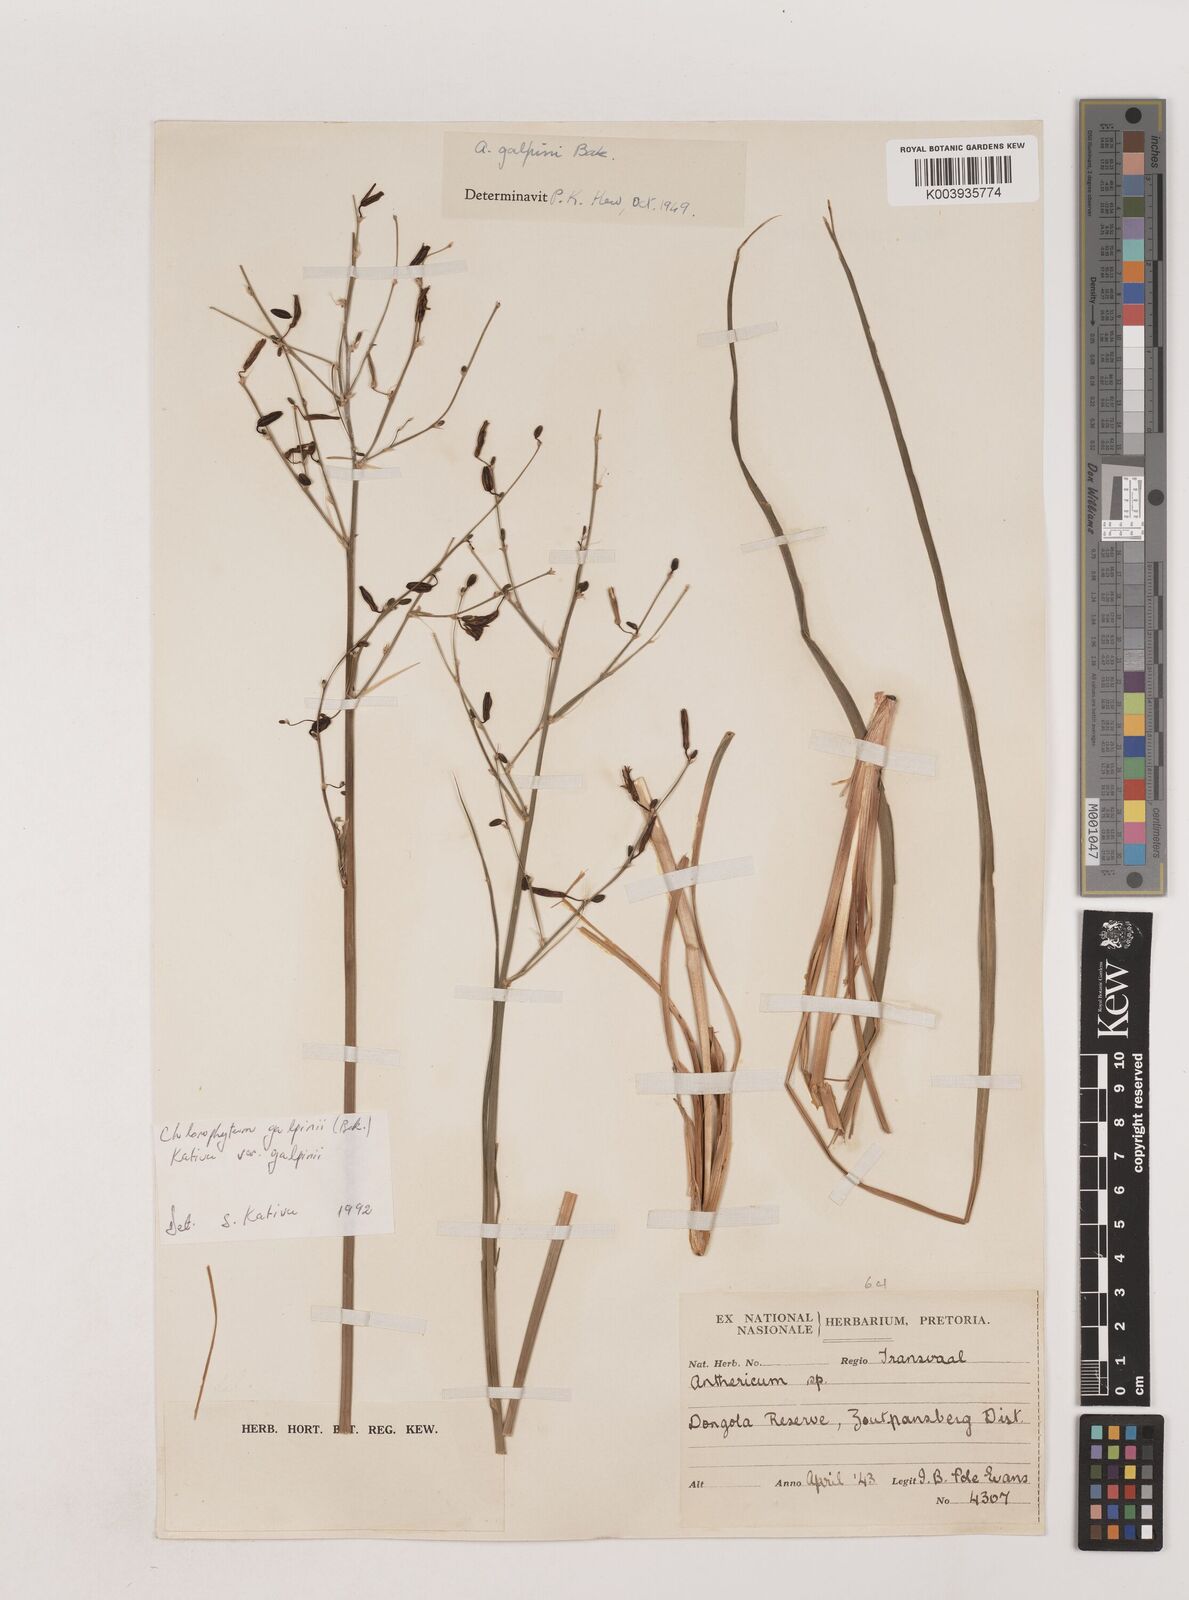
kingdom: Plantae
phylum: Tracheophyta
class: Liliopsida
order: Asparagales
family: Asparagaceae
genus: Chlorophytum
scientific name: Chlorophytum galpinii
